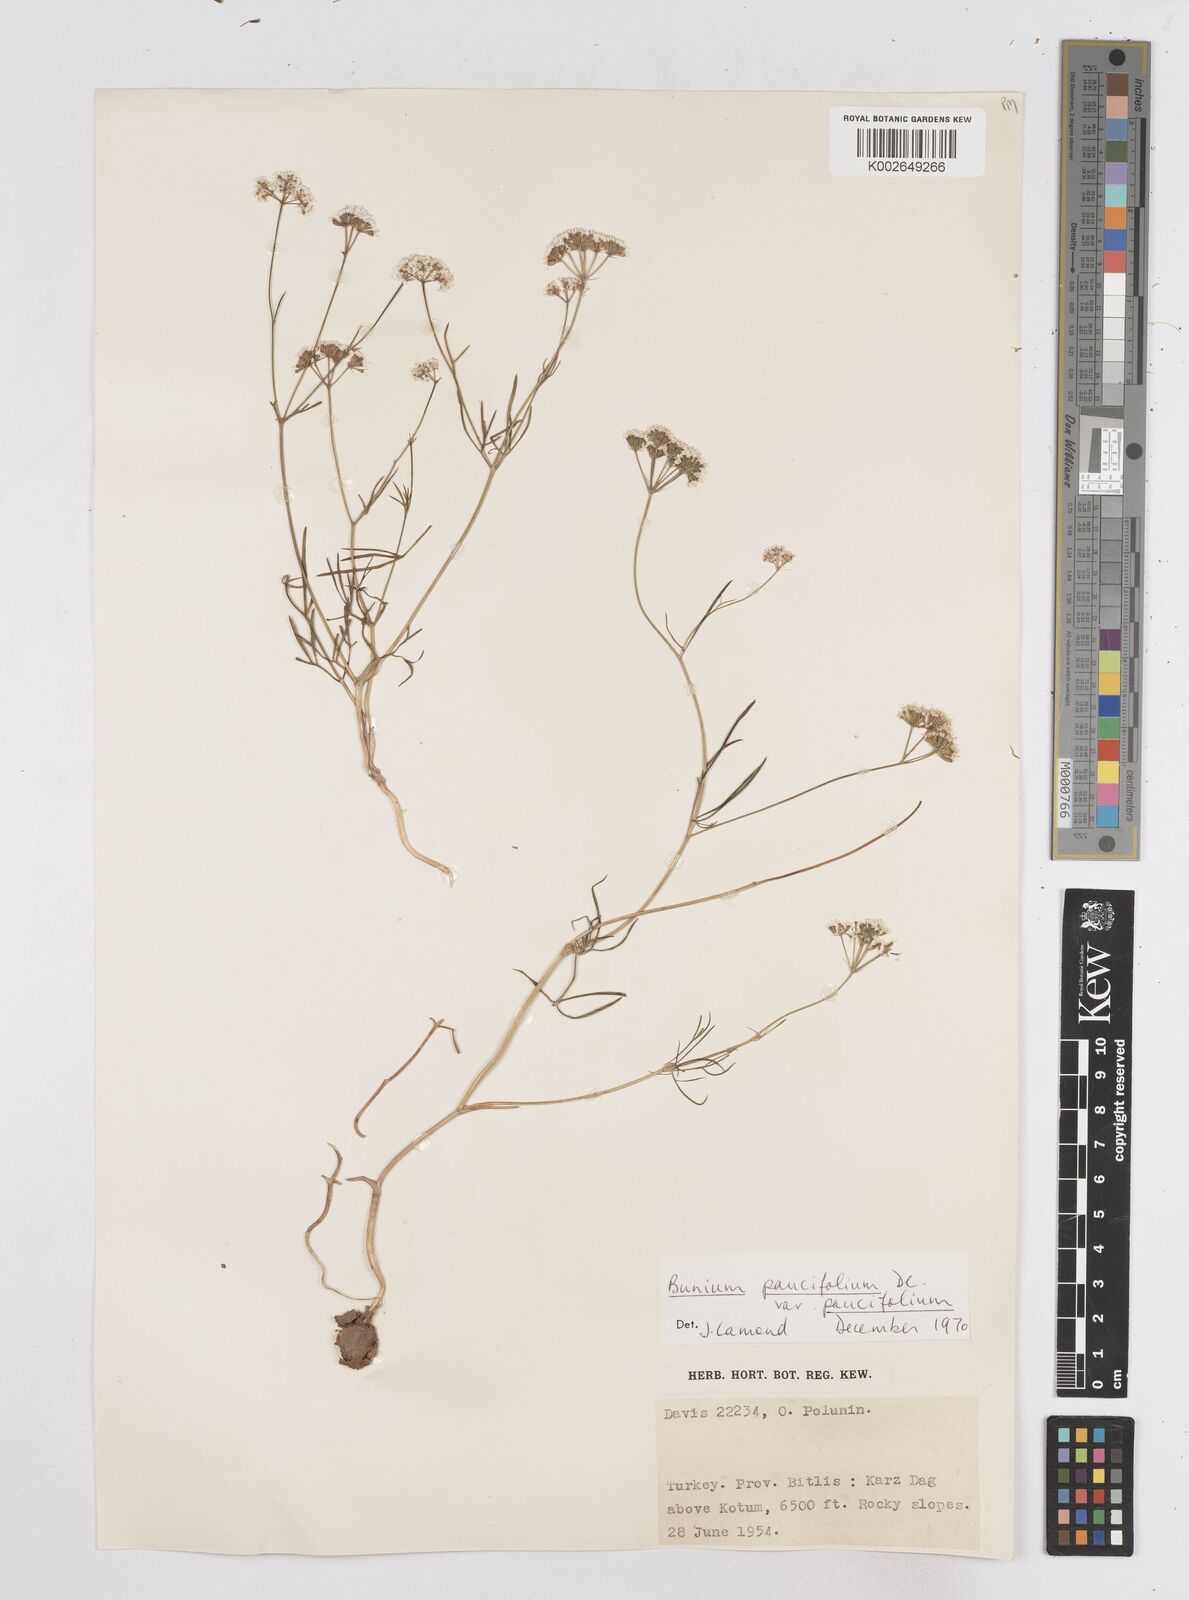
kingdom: Plantae
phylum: Tracheophyta
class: Magnoliopsida
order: Apiales
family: Apiaceae
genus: Bunium
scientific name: Bunium
